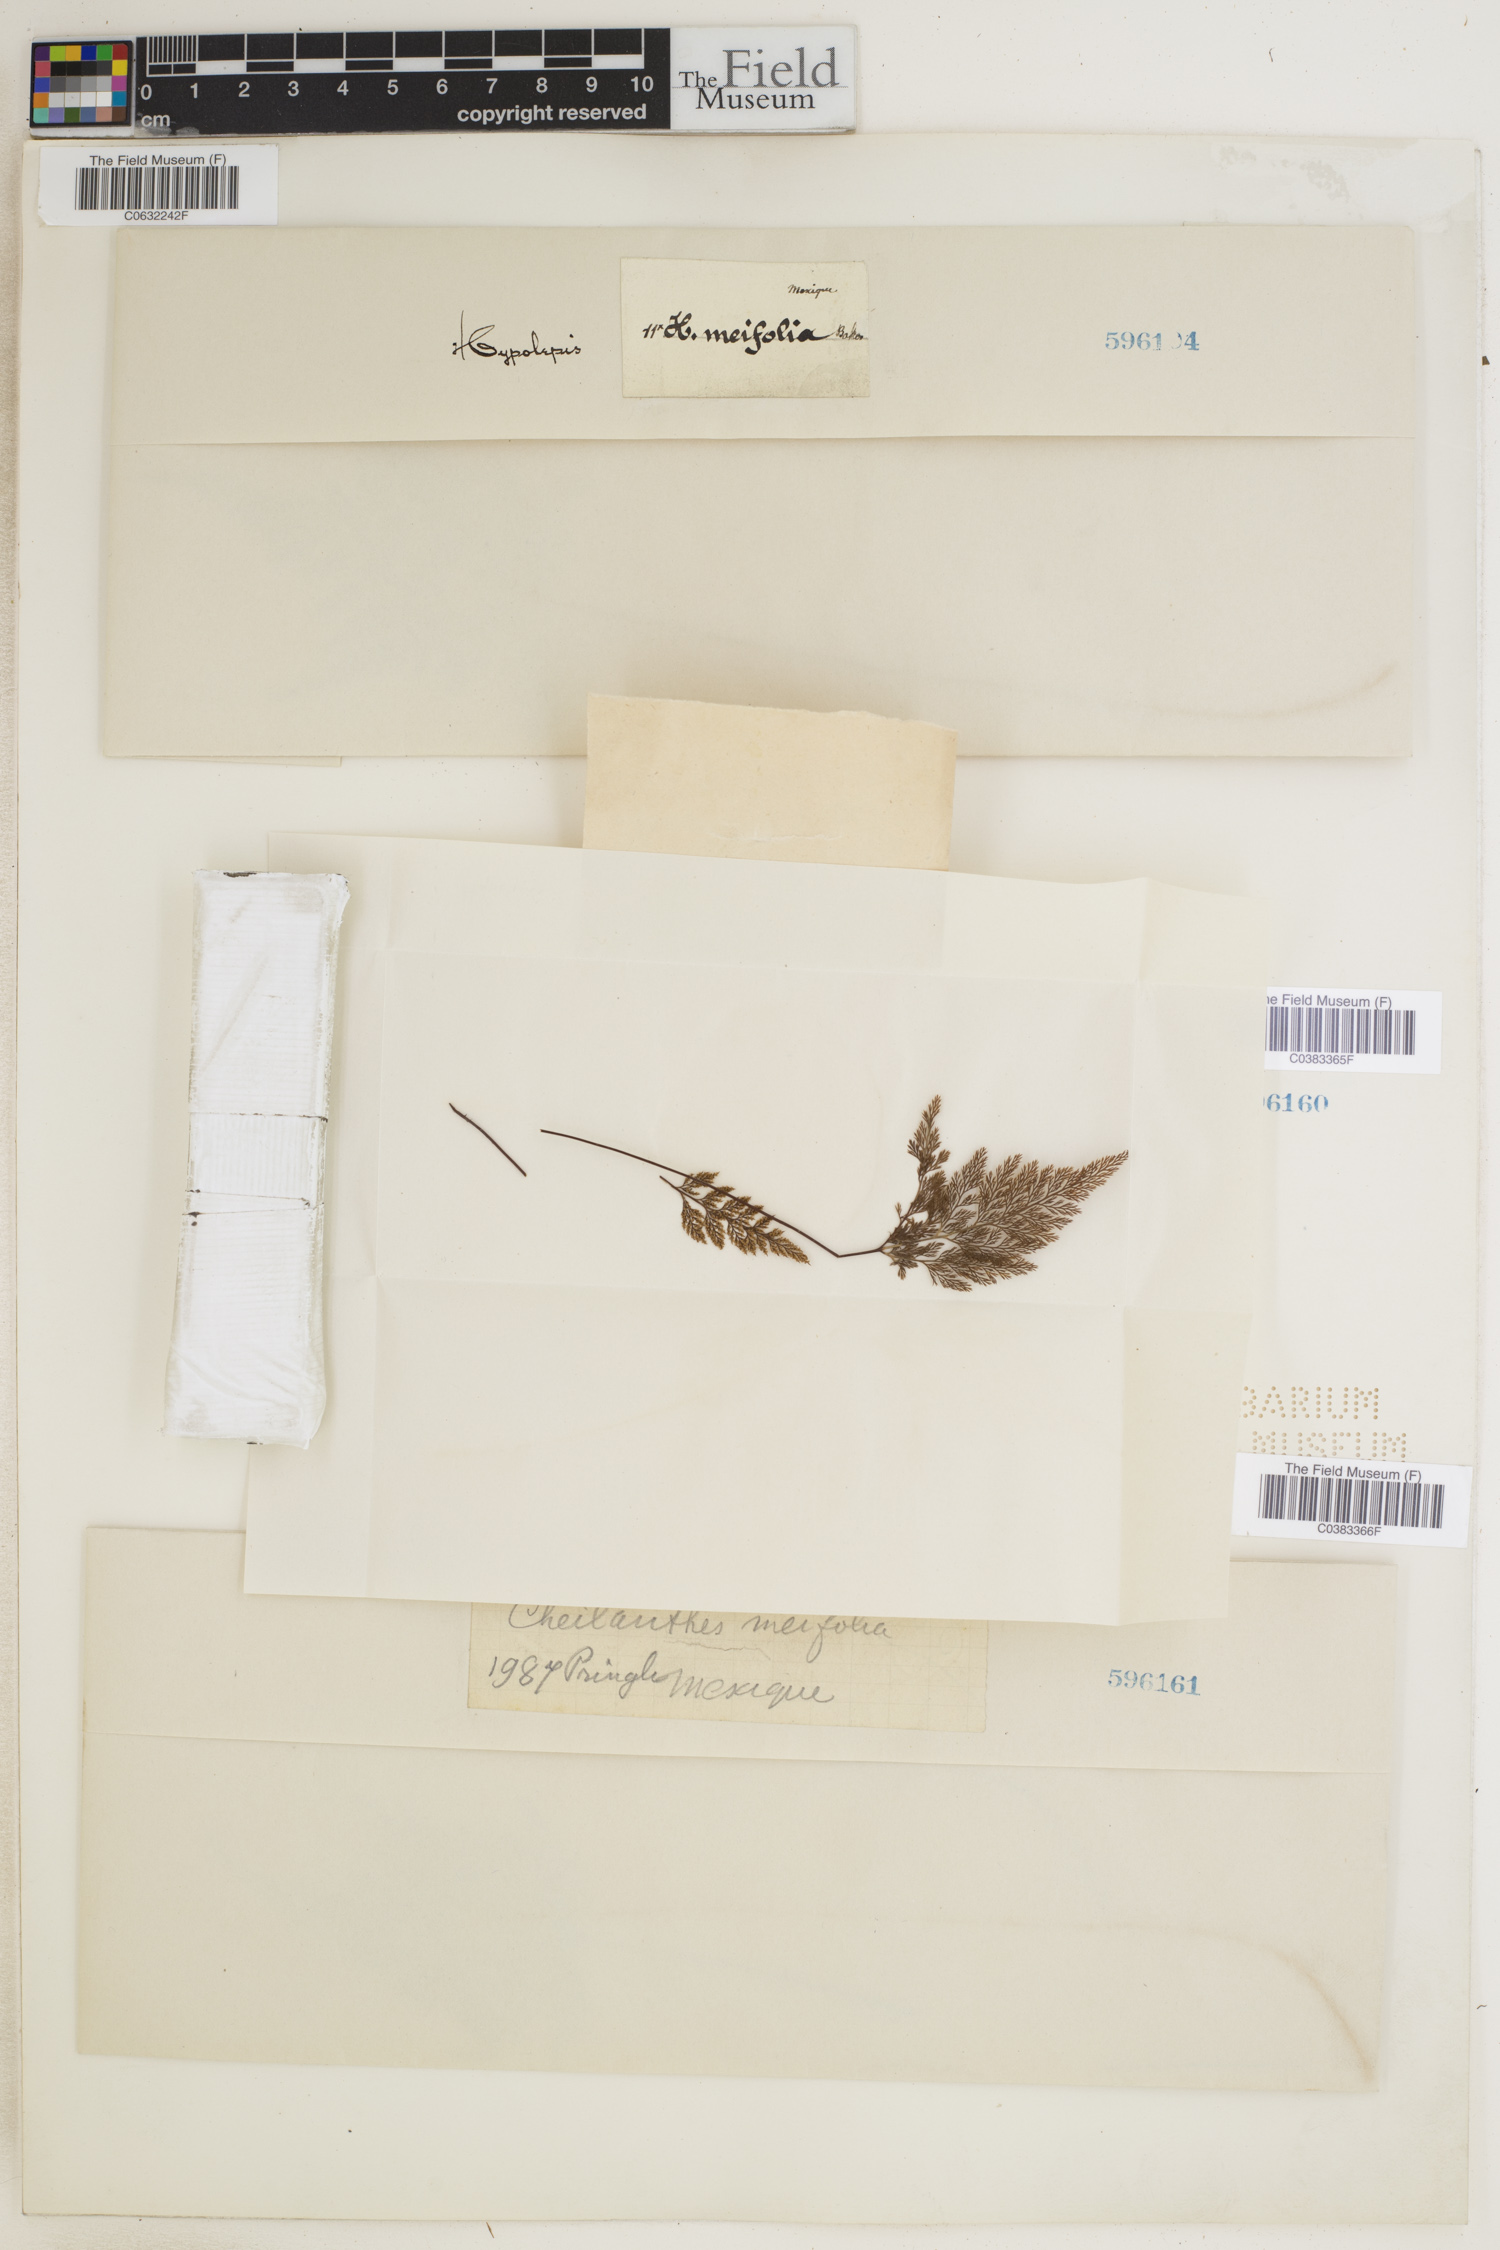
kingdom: Plantae
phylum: Tracheophyta
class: Polypodiopsida
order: Polypodiales
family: Pteridaceae
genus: Aspidotis
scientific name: Aspidotis meifolia
